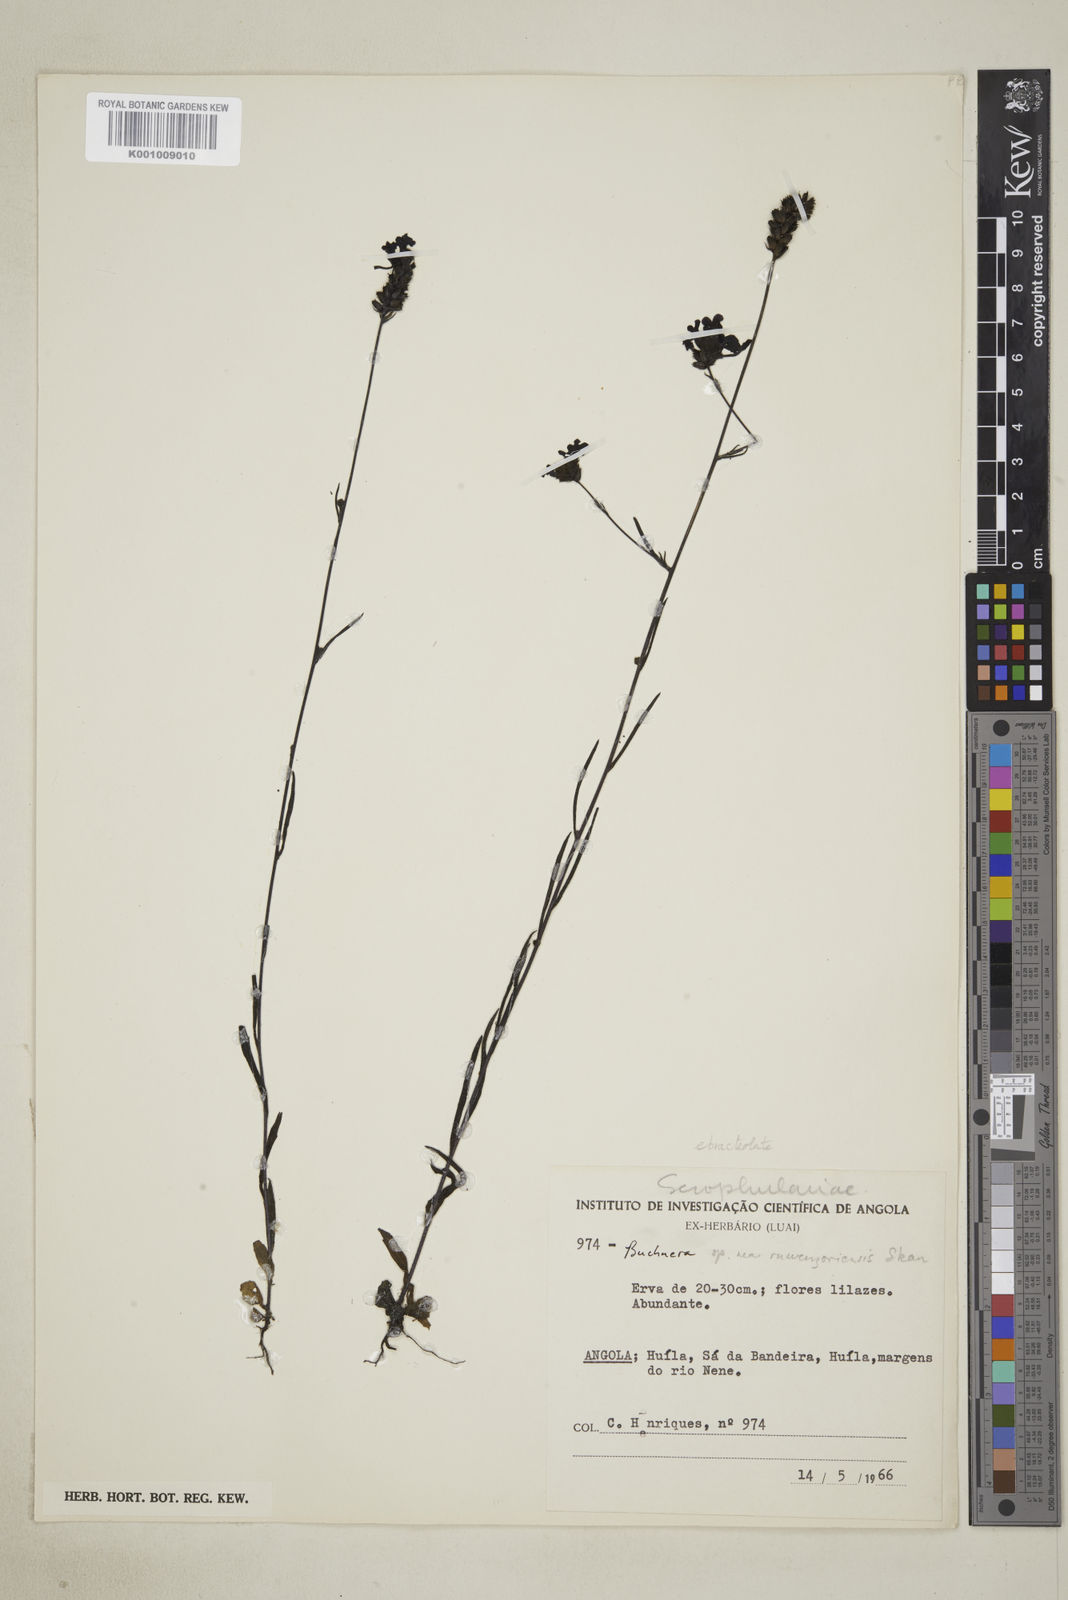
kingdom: Plantae
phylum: Tracheophyta
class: Magnoliopsida
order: Lamiales
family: Orobanchaceae
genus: Buchnera
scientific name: Buchnera ruwenzoriensis
